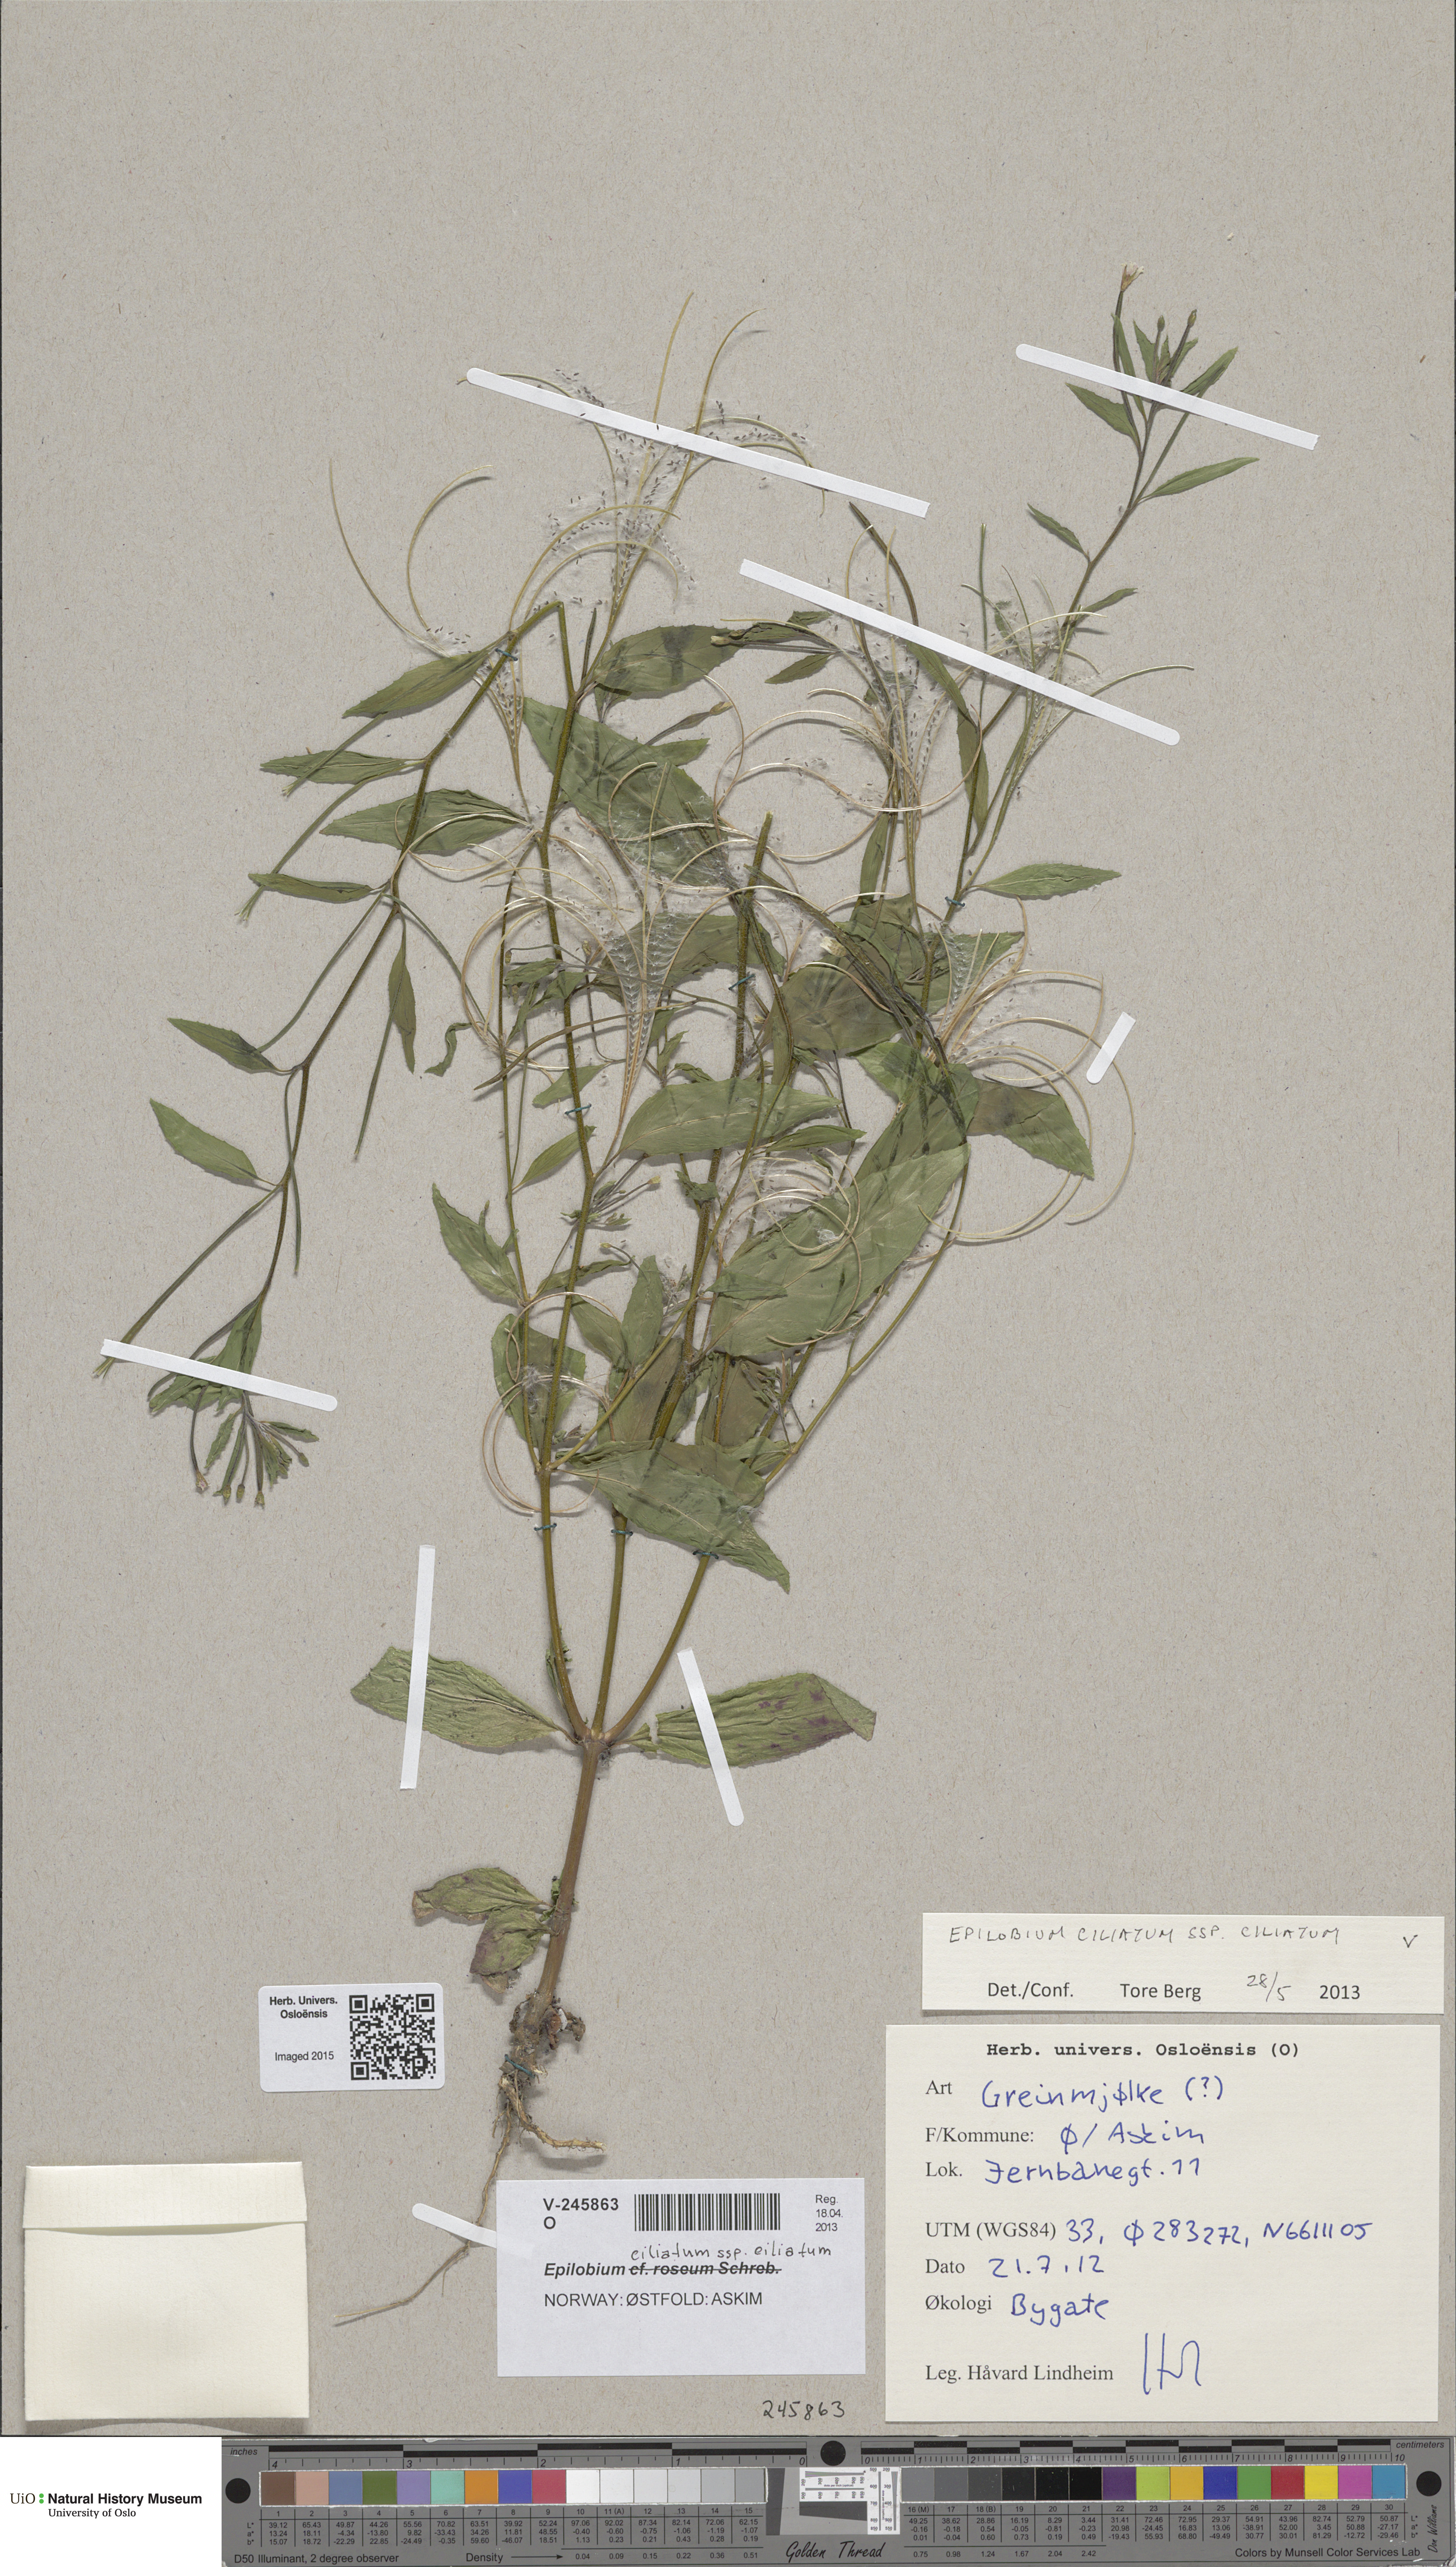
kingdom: Plantae
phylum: Tracheophyta
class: Magnoliopsida
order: Myrtales
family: Onagraceae
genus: Epilobium
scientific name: Epilobium ciliatum
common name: American willowherb
